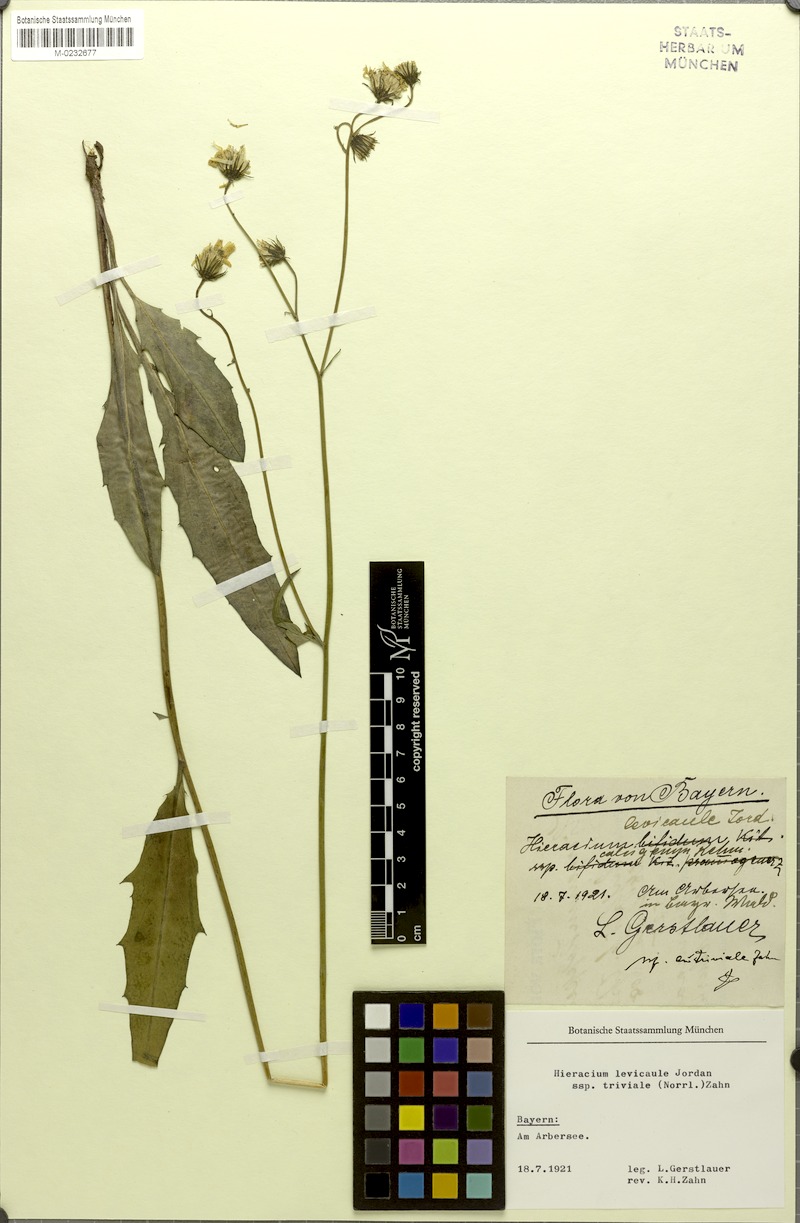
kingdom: Plantae
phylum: Tracheophyta
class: Magnoliopsida
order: Asterales
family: Asteraceae
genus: Hieracium
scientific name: Hieracium levicaule
